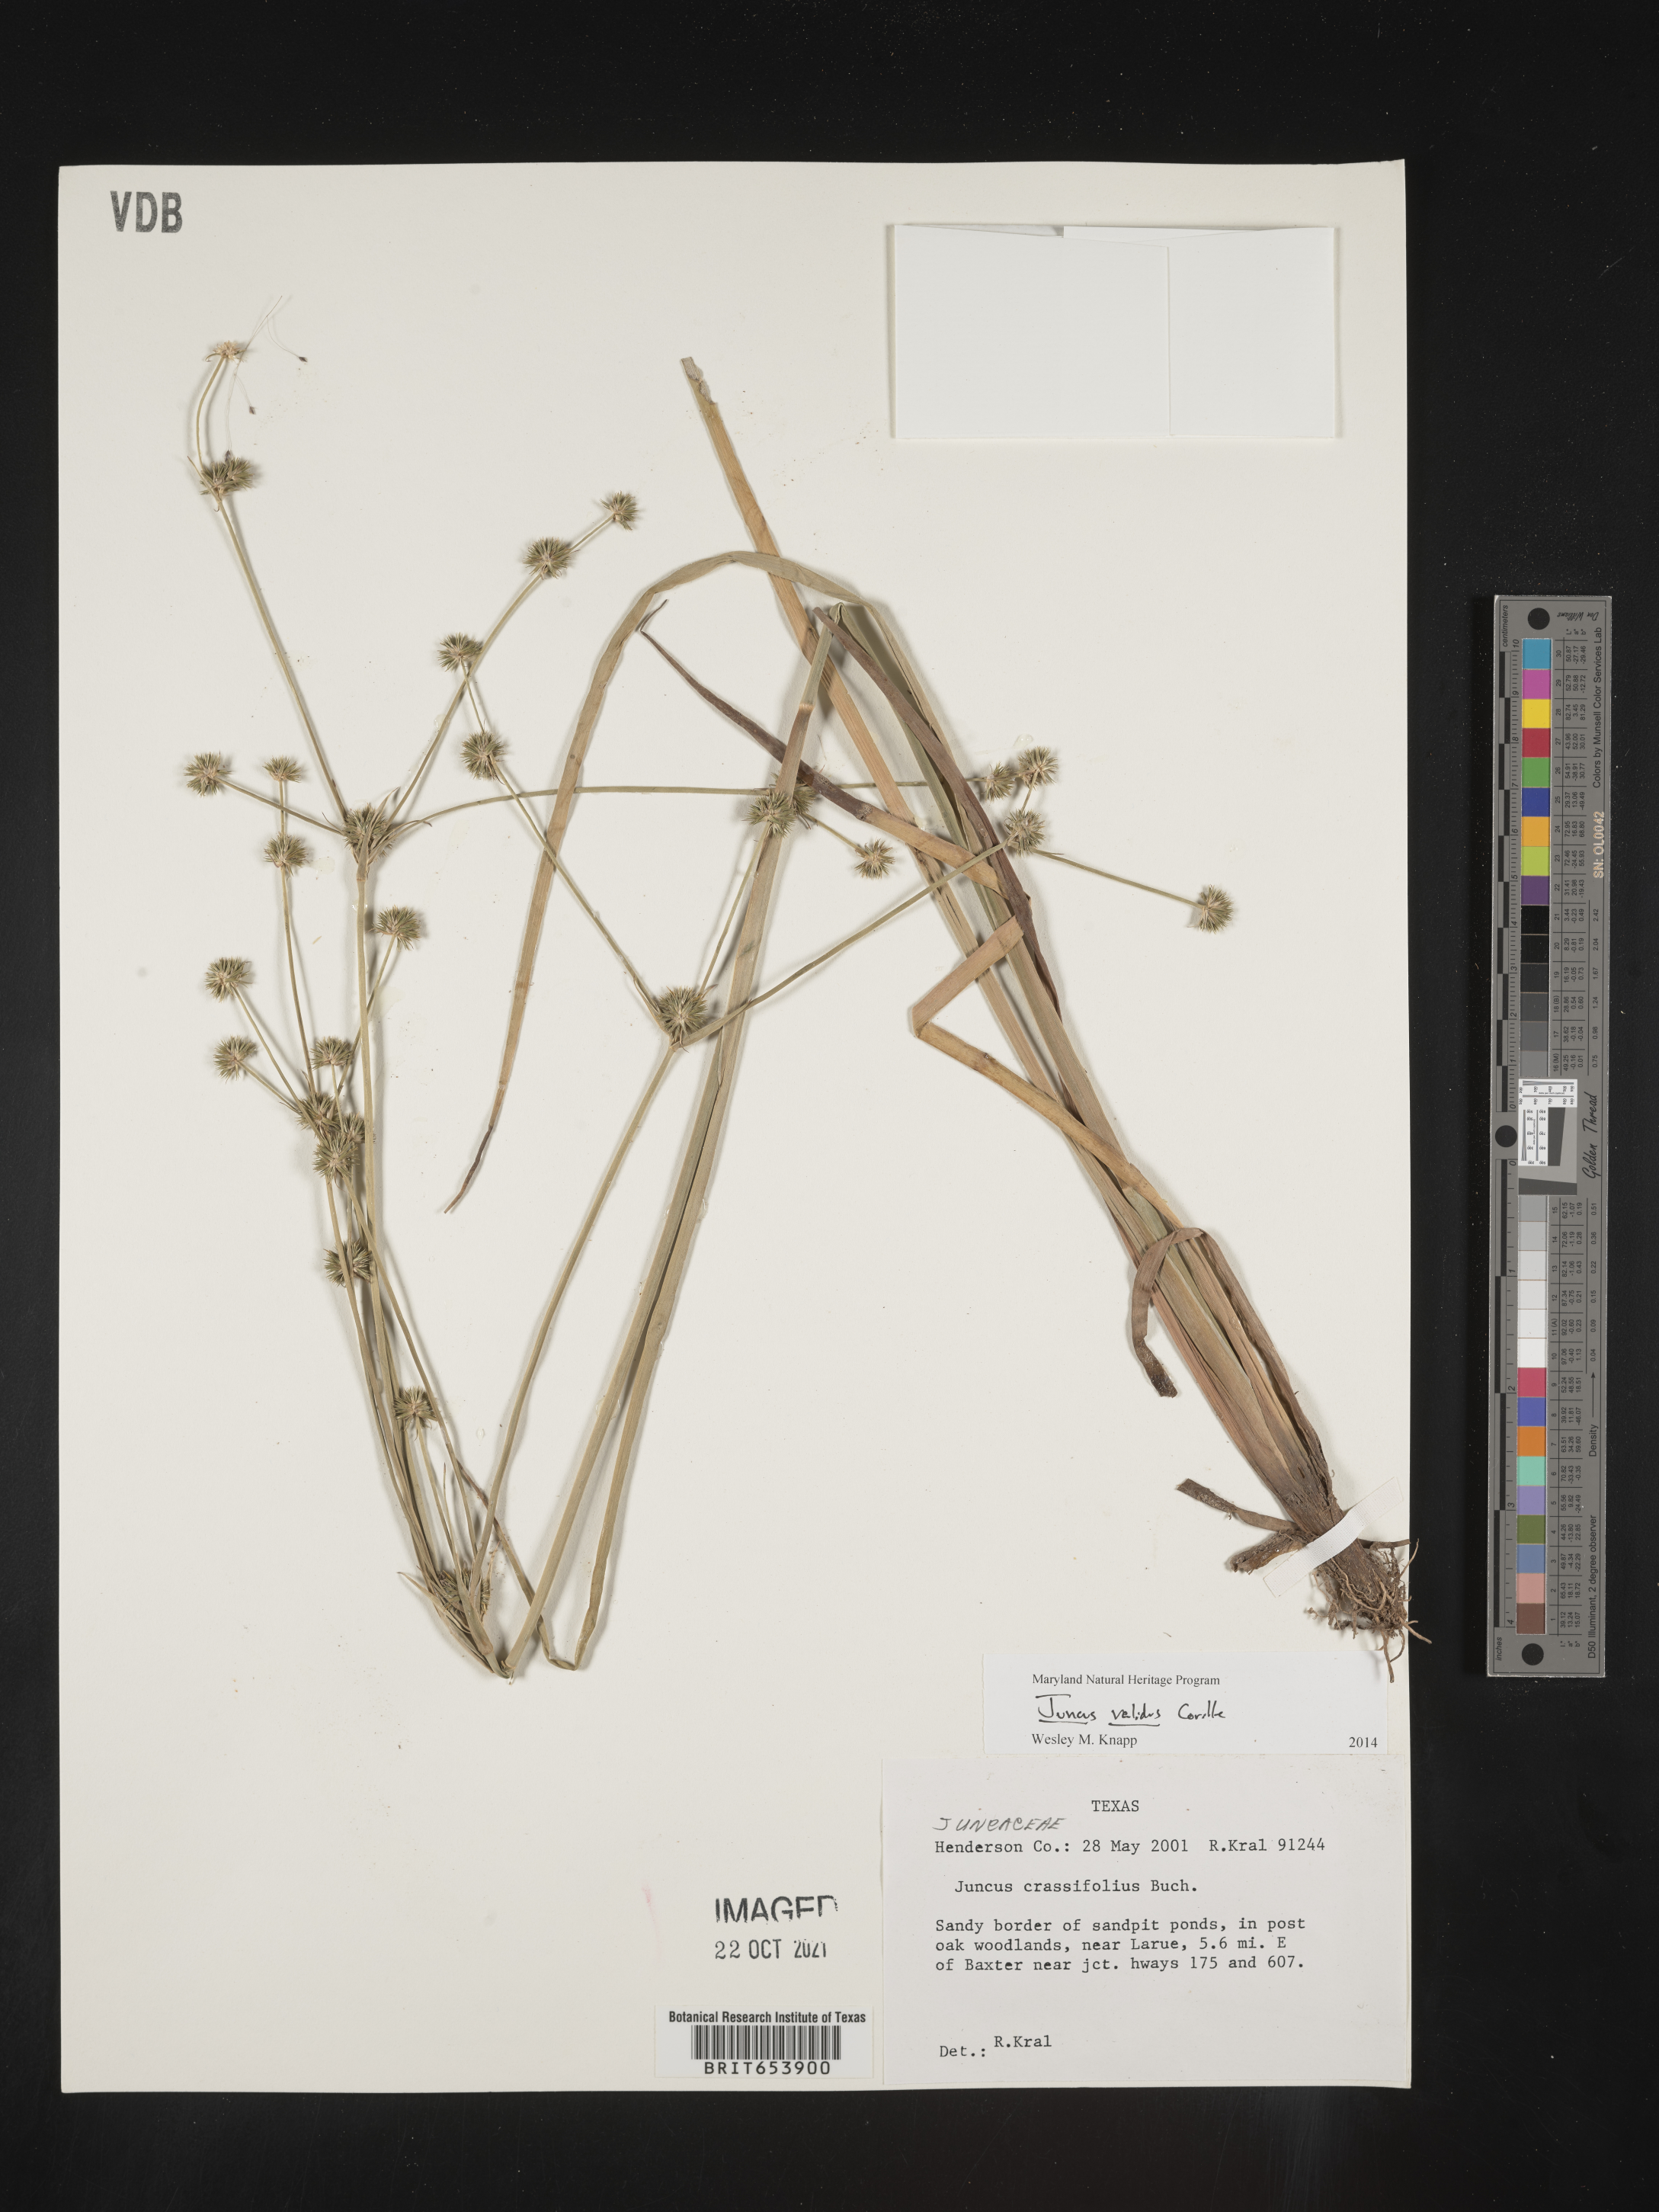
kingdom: Plantae
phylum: Tracheophyta
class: Liliopsida
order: Poales
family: Juncaceae
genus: Juncus
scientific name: Juncus validus
